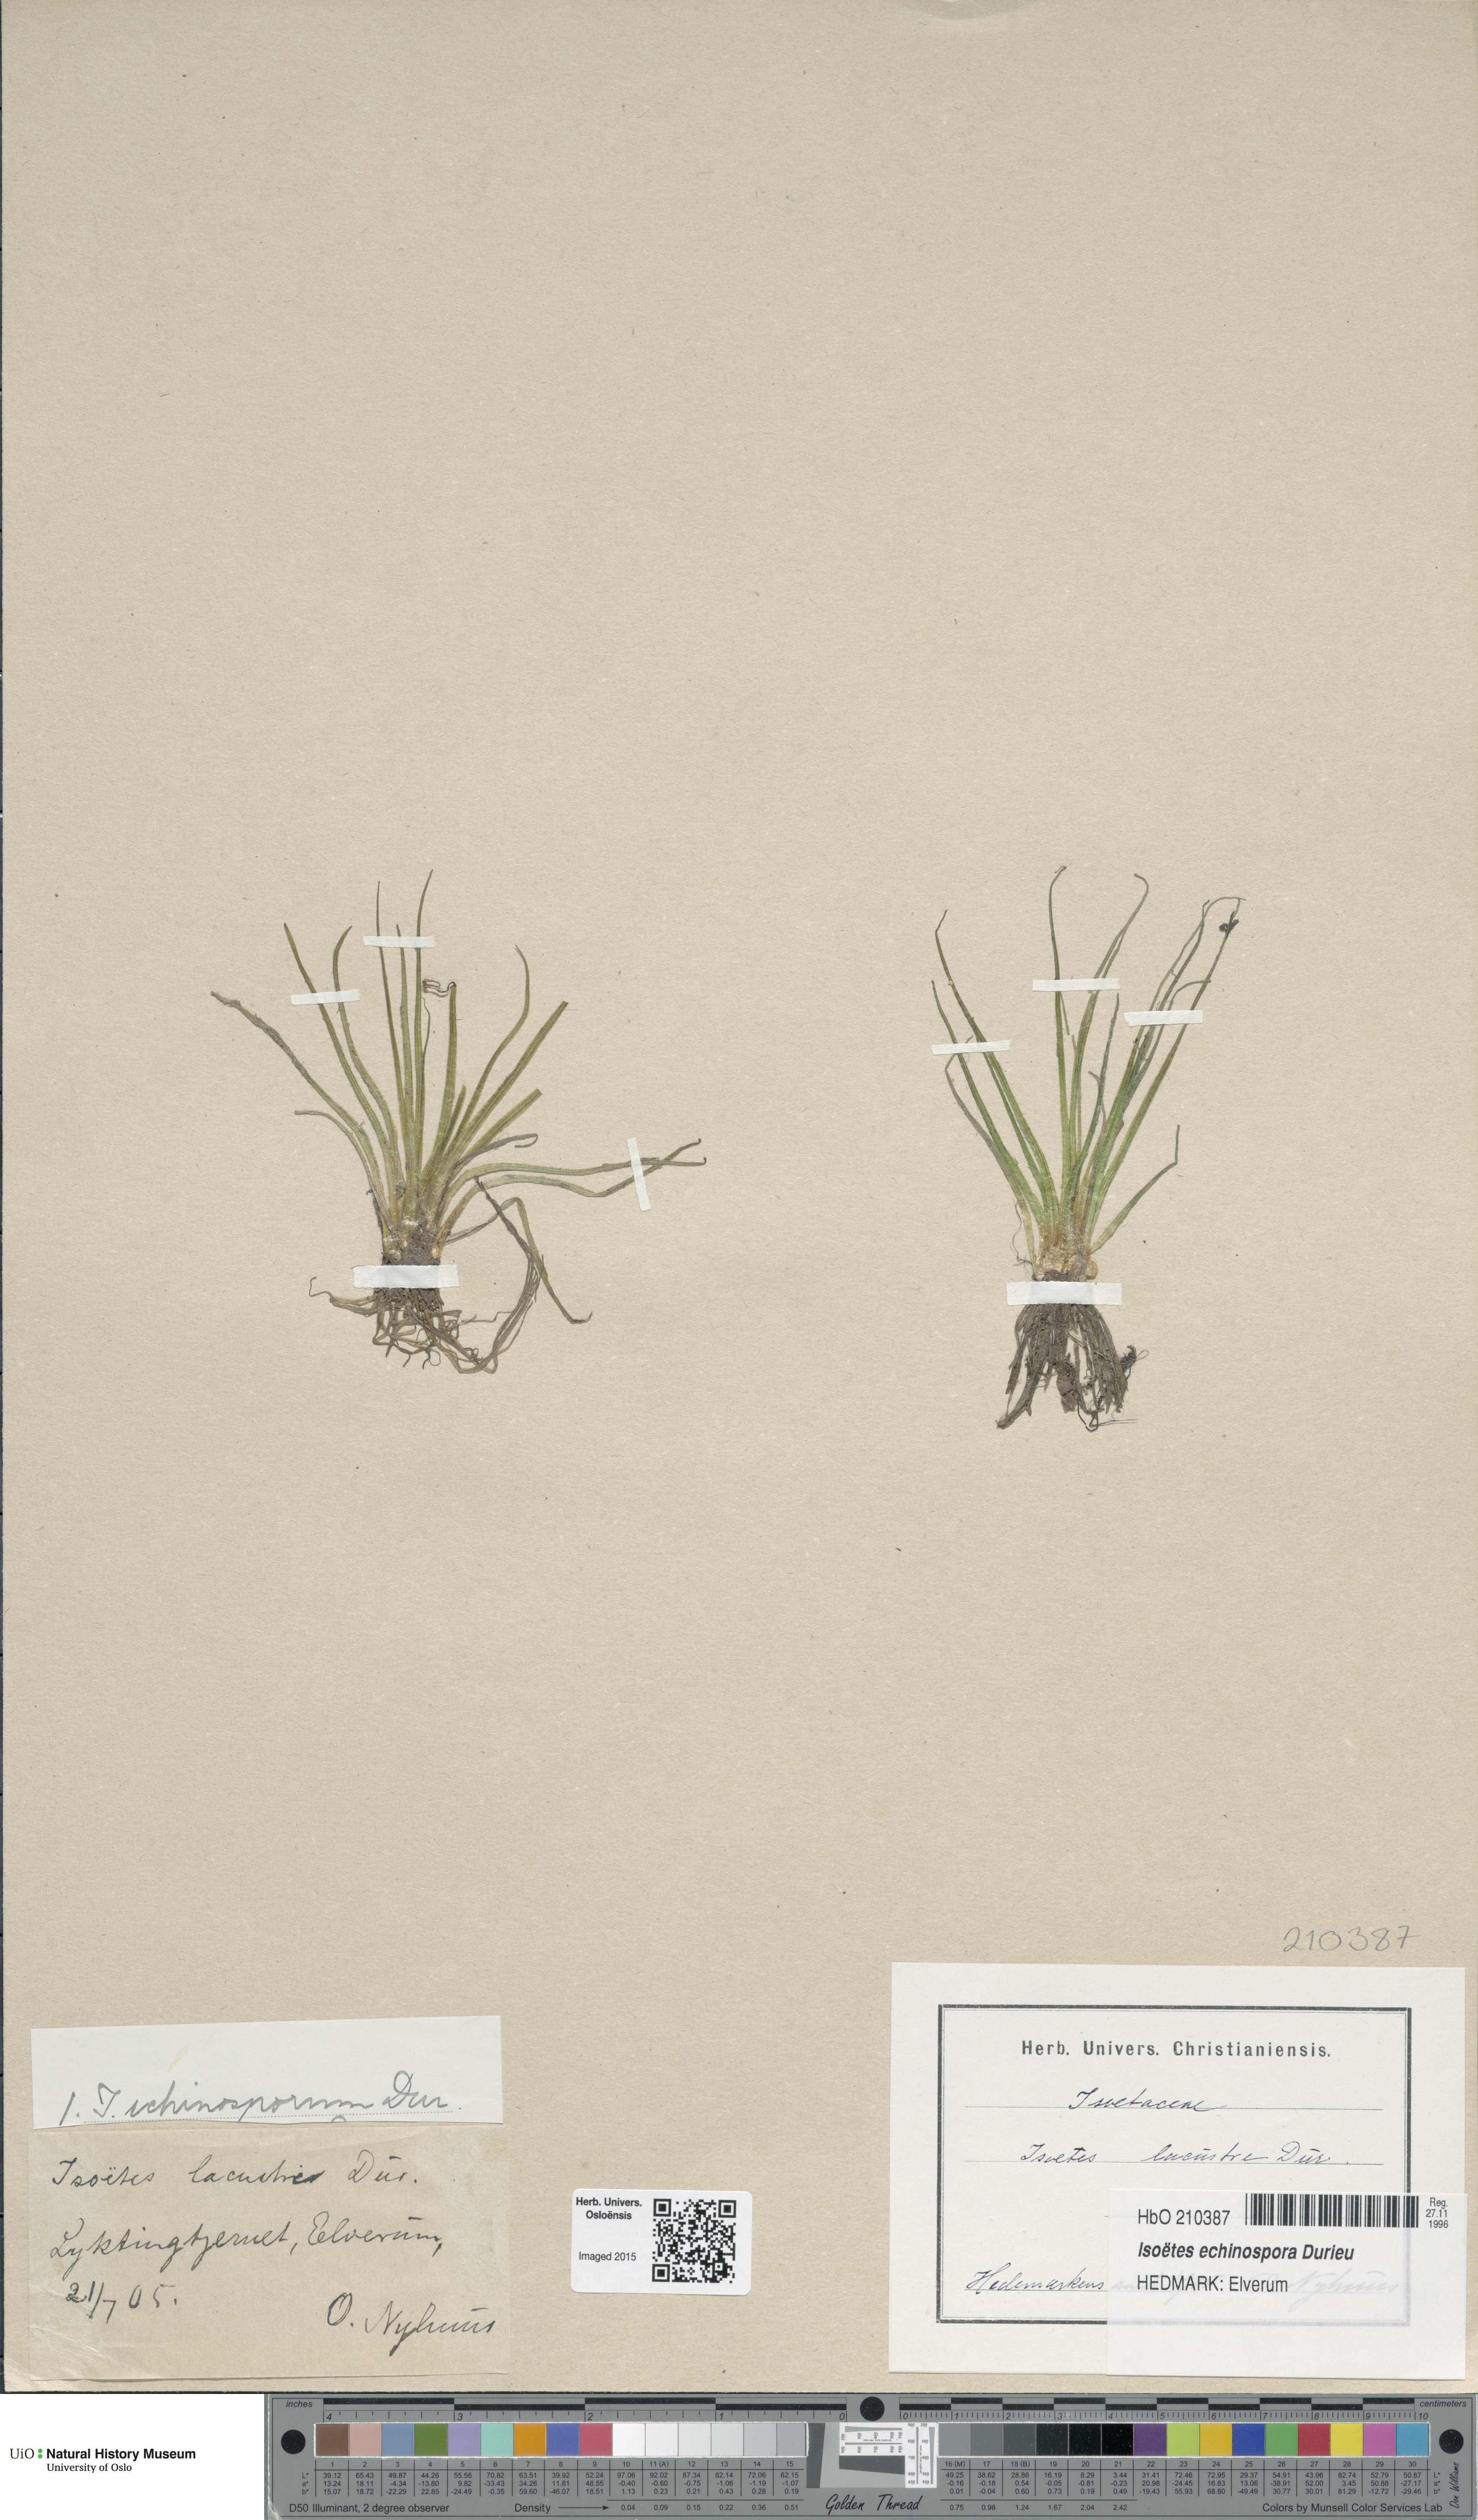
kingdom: Plantae
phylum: Tracheophyta
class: Lycopodiopsida
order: Isoetales
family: Isoetaceae
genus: Isoetes
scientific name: Isoetes echinospora
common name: Spring quillwort
